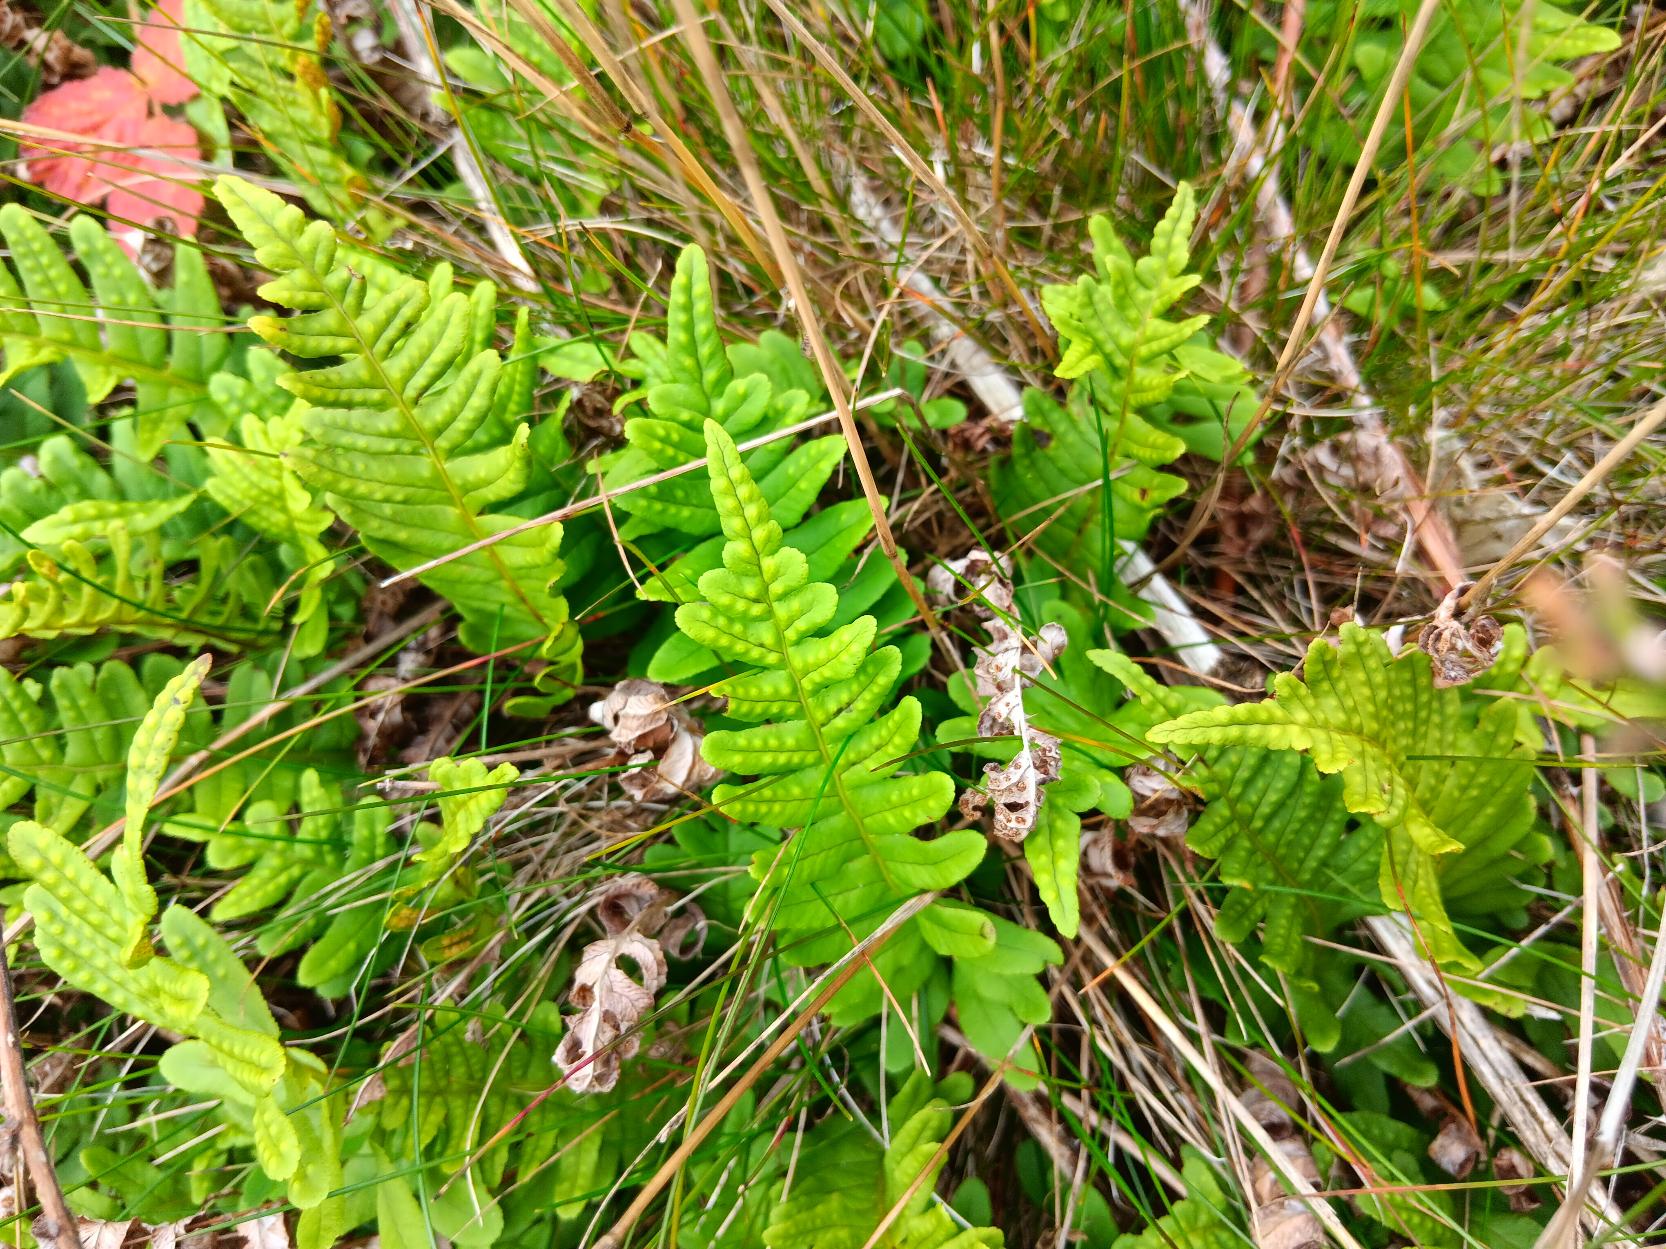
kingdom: Plantae
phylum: Tracheophyta
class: Polypodiopsida
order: Polypodiales
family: Polypodiaceae
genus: Polypodium
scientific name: Polypodium vulgare
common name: Almindelig engelsød
